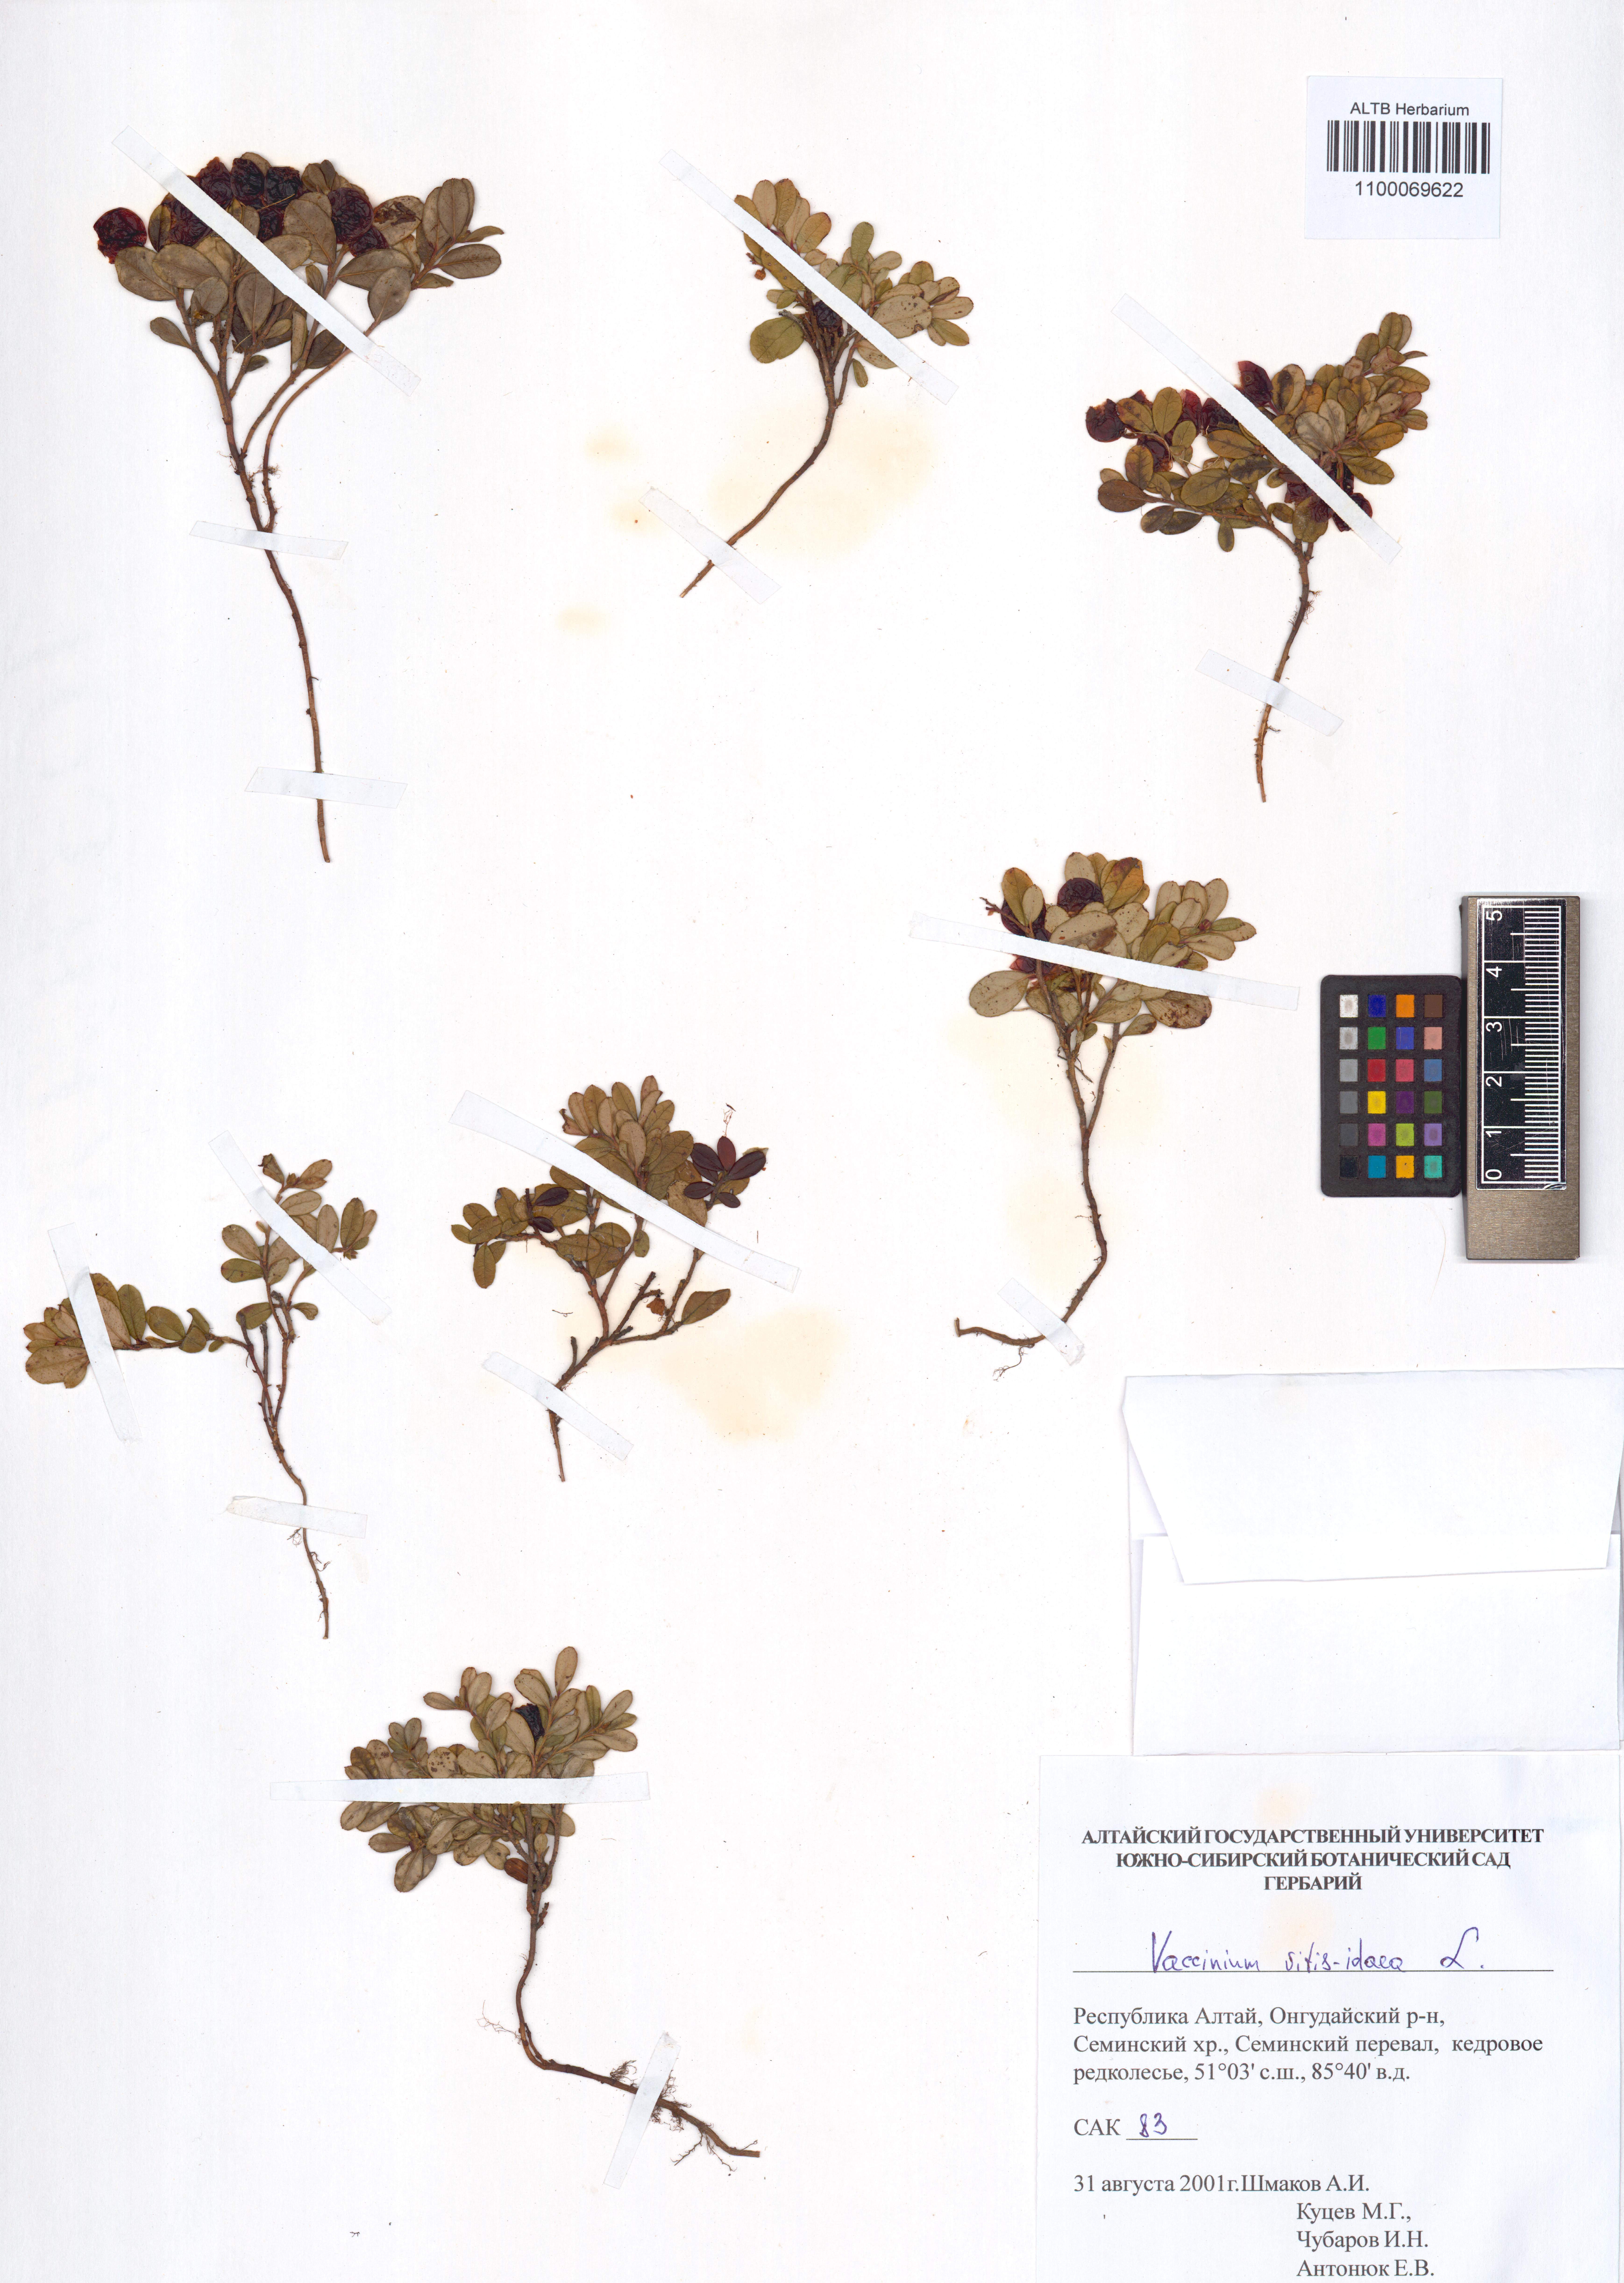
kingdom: Plantae
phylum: Tracheophyta
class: Magnoliopsida
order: Ericales
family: Ericaceae
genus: Vaccinium
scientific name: Vaccinium vitis-idaea
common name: Cowberry
